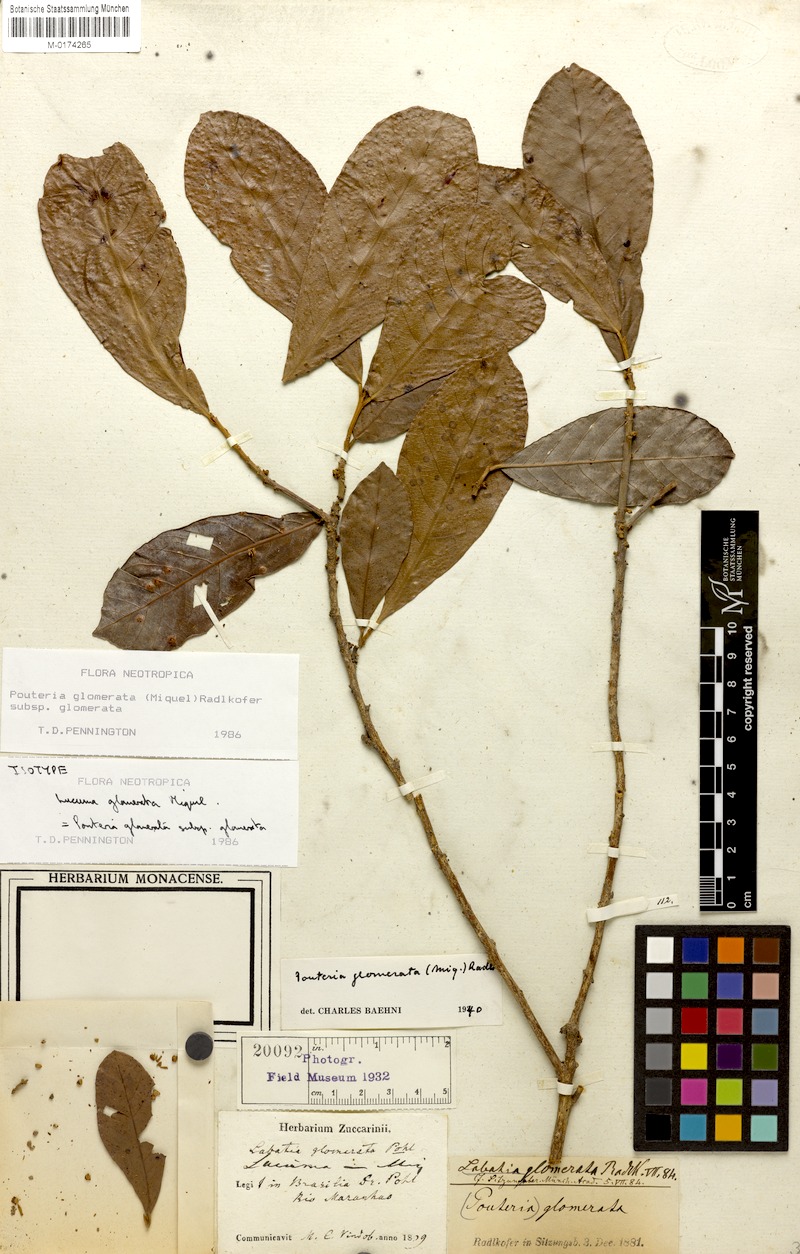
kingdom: Plantae
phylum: Tracheophyta
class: Magnoliopsida
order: Ericales
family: Sapotaceae
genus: Pouteria
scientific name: Pouteria glomerata
